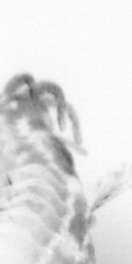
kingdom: Animalia
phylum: Annelida
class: Polychaeta
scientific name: Polychaeta
